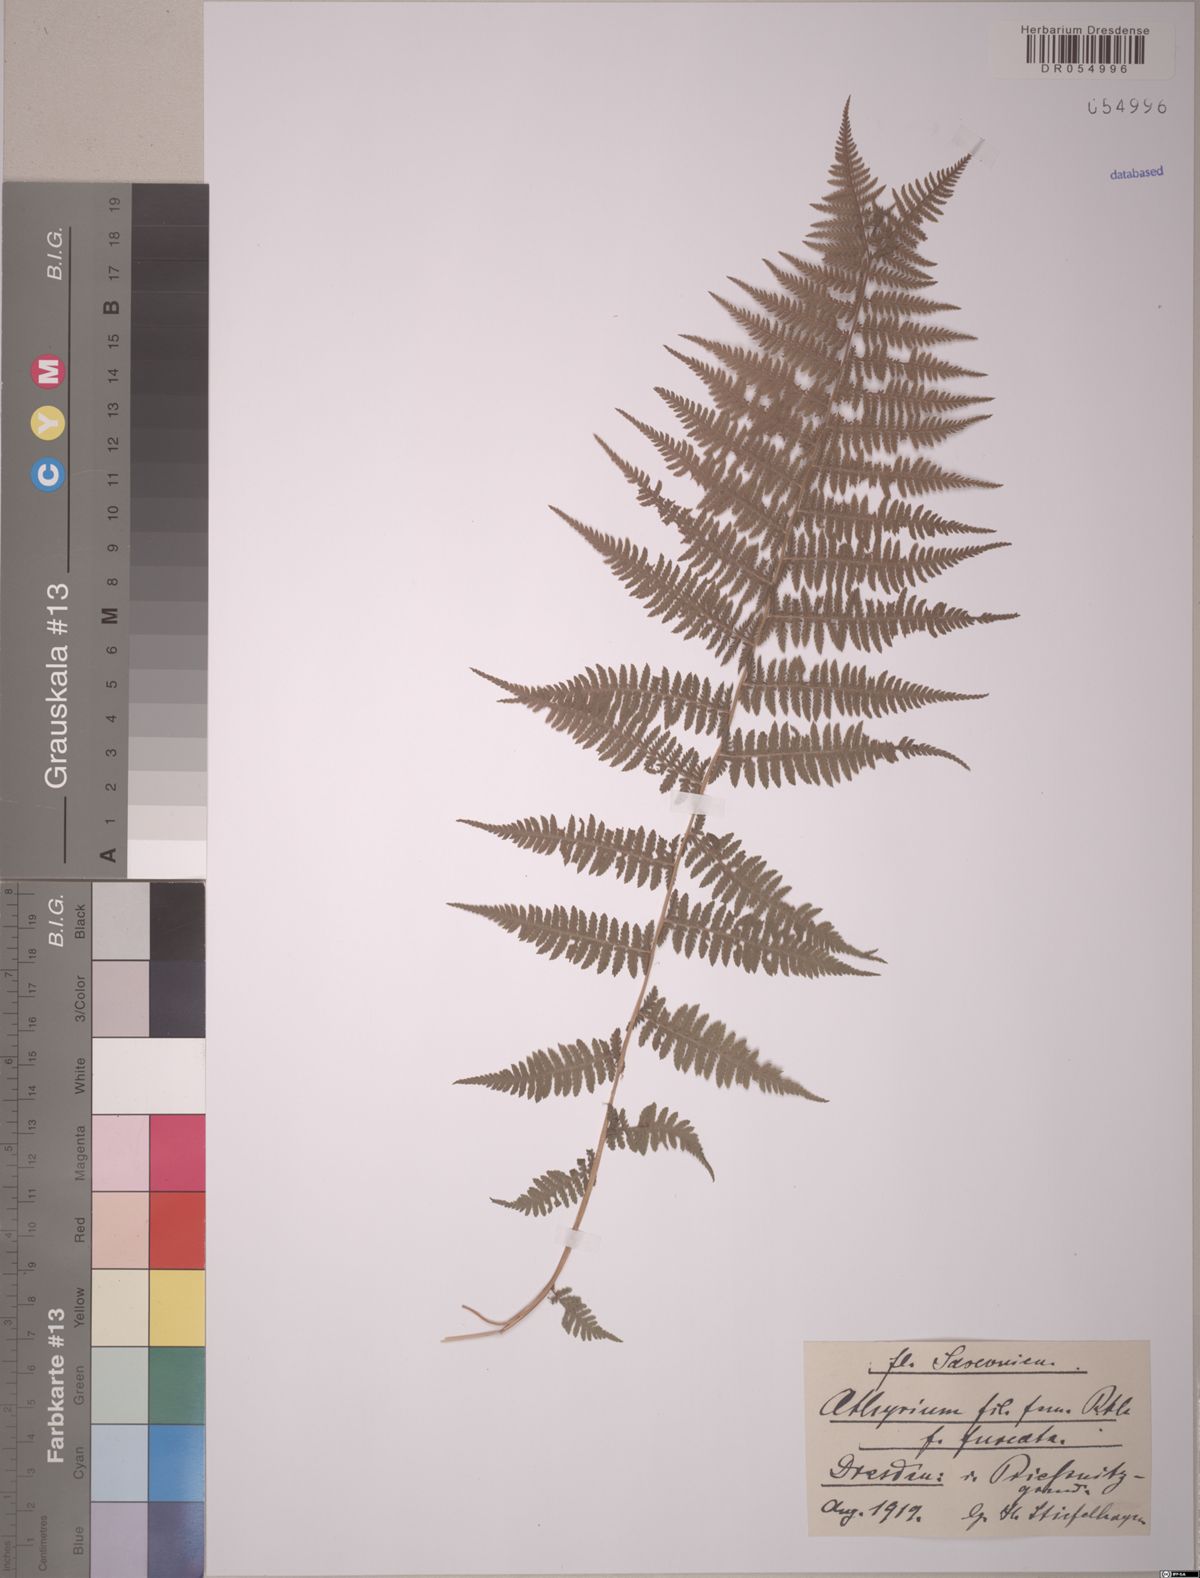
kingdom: Plantae
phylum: Tracheophyta
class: Polypodiopsida
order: Polypodiales
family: Athyriaceae
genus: Athyrium
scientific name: Athyrium filix-femina
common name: Lady fern
